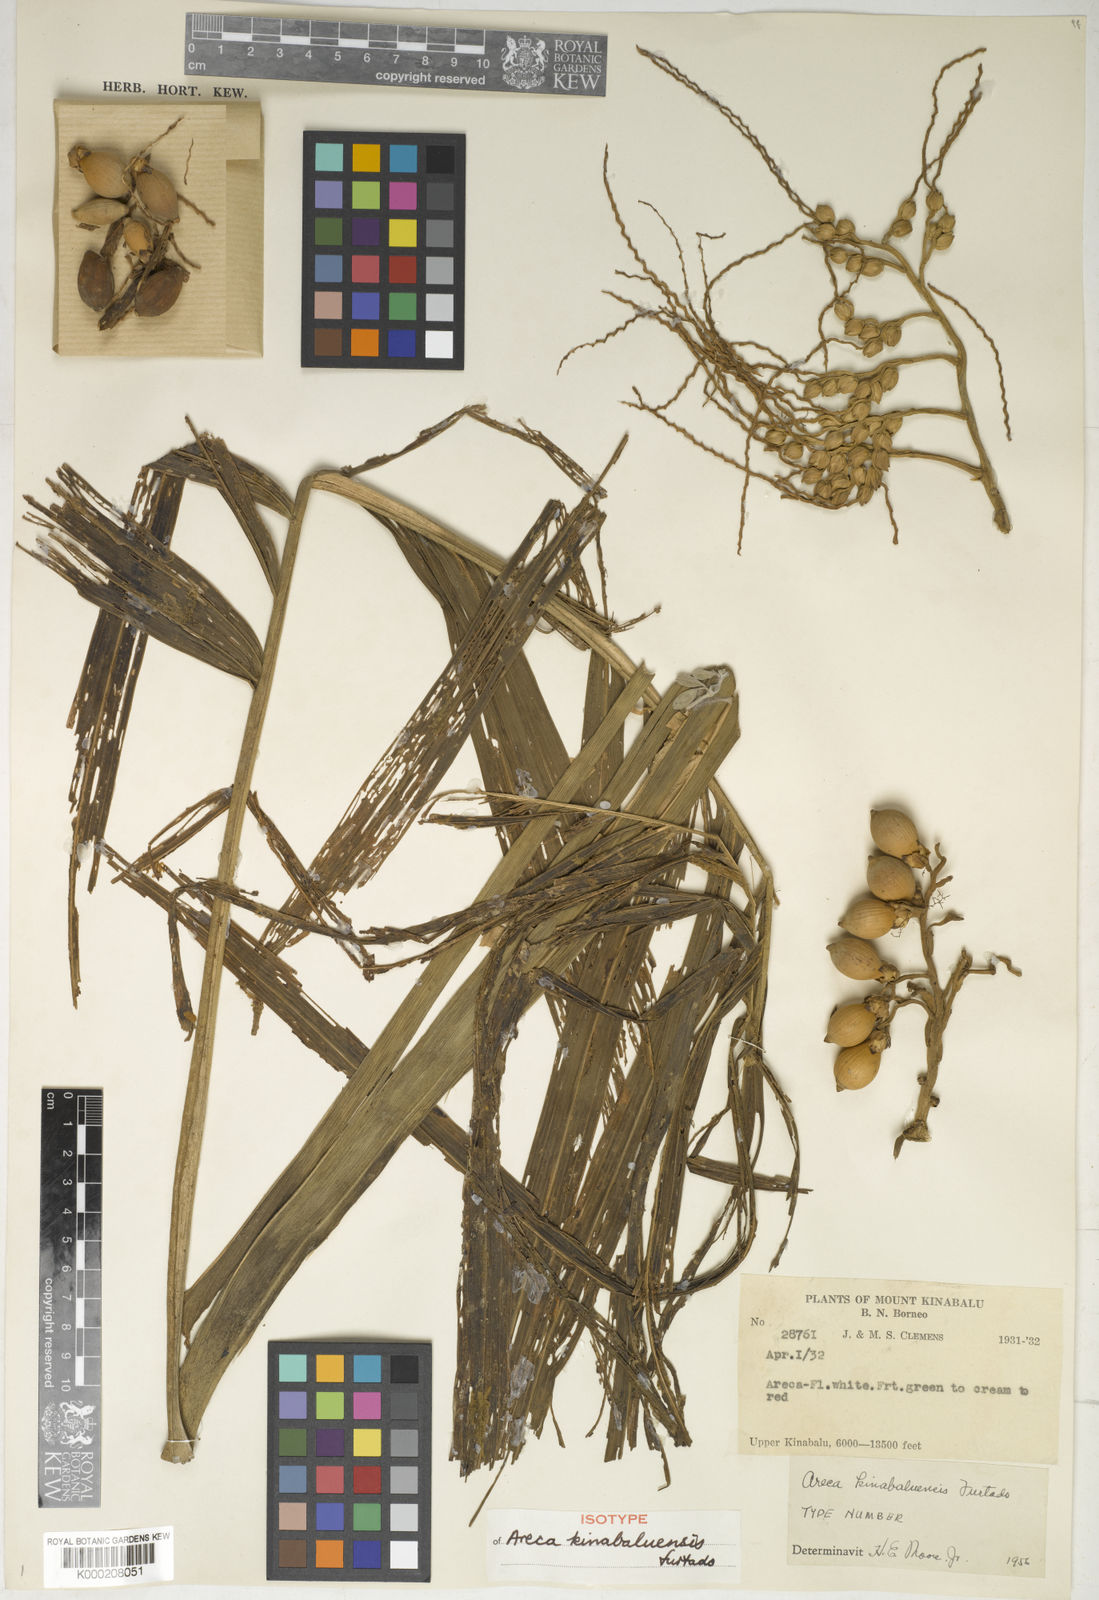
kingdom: Plantae
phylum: Tracheophyta
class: Liliopsida
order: Arecales
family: Arecaceae
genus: Areca
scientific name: Areca kinabaluensis
